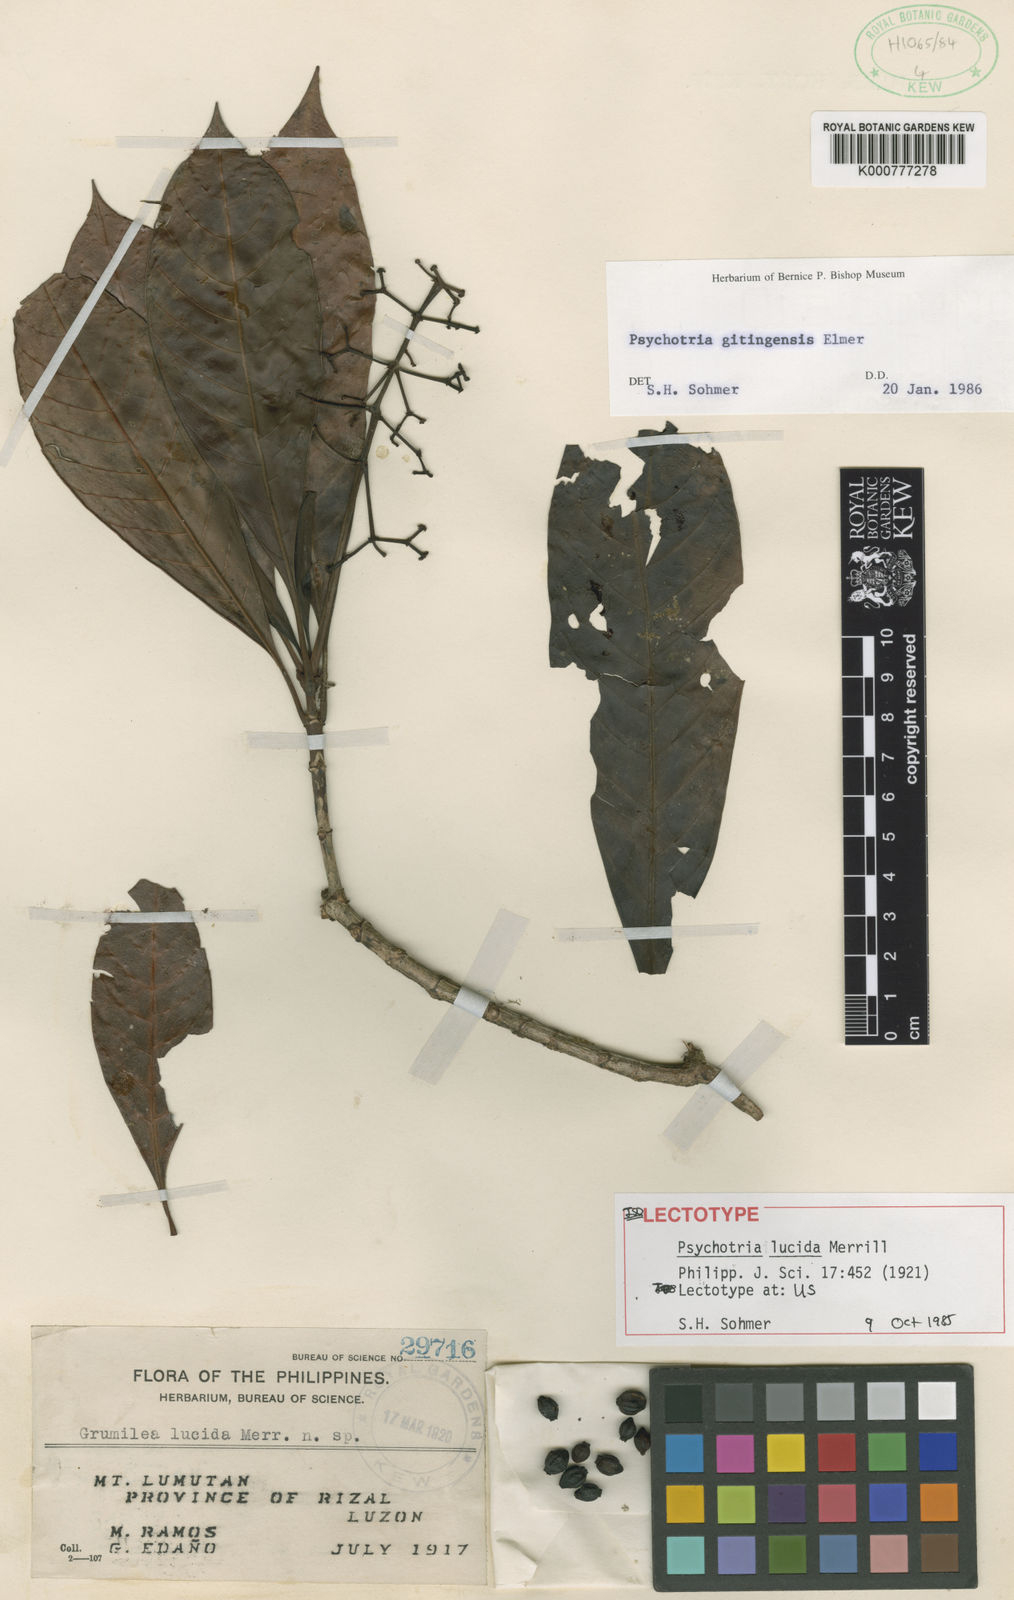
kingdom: Plantae
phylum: Tracheophyta
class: Magnoliopsida
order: Gentianales
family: Rubiaceae
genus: Psychotria
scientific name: Psychotria gitingensis
